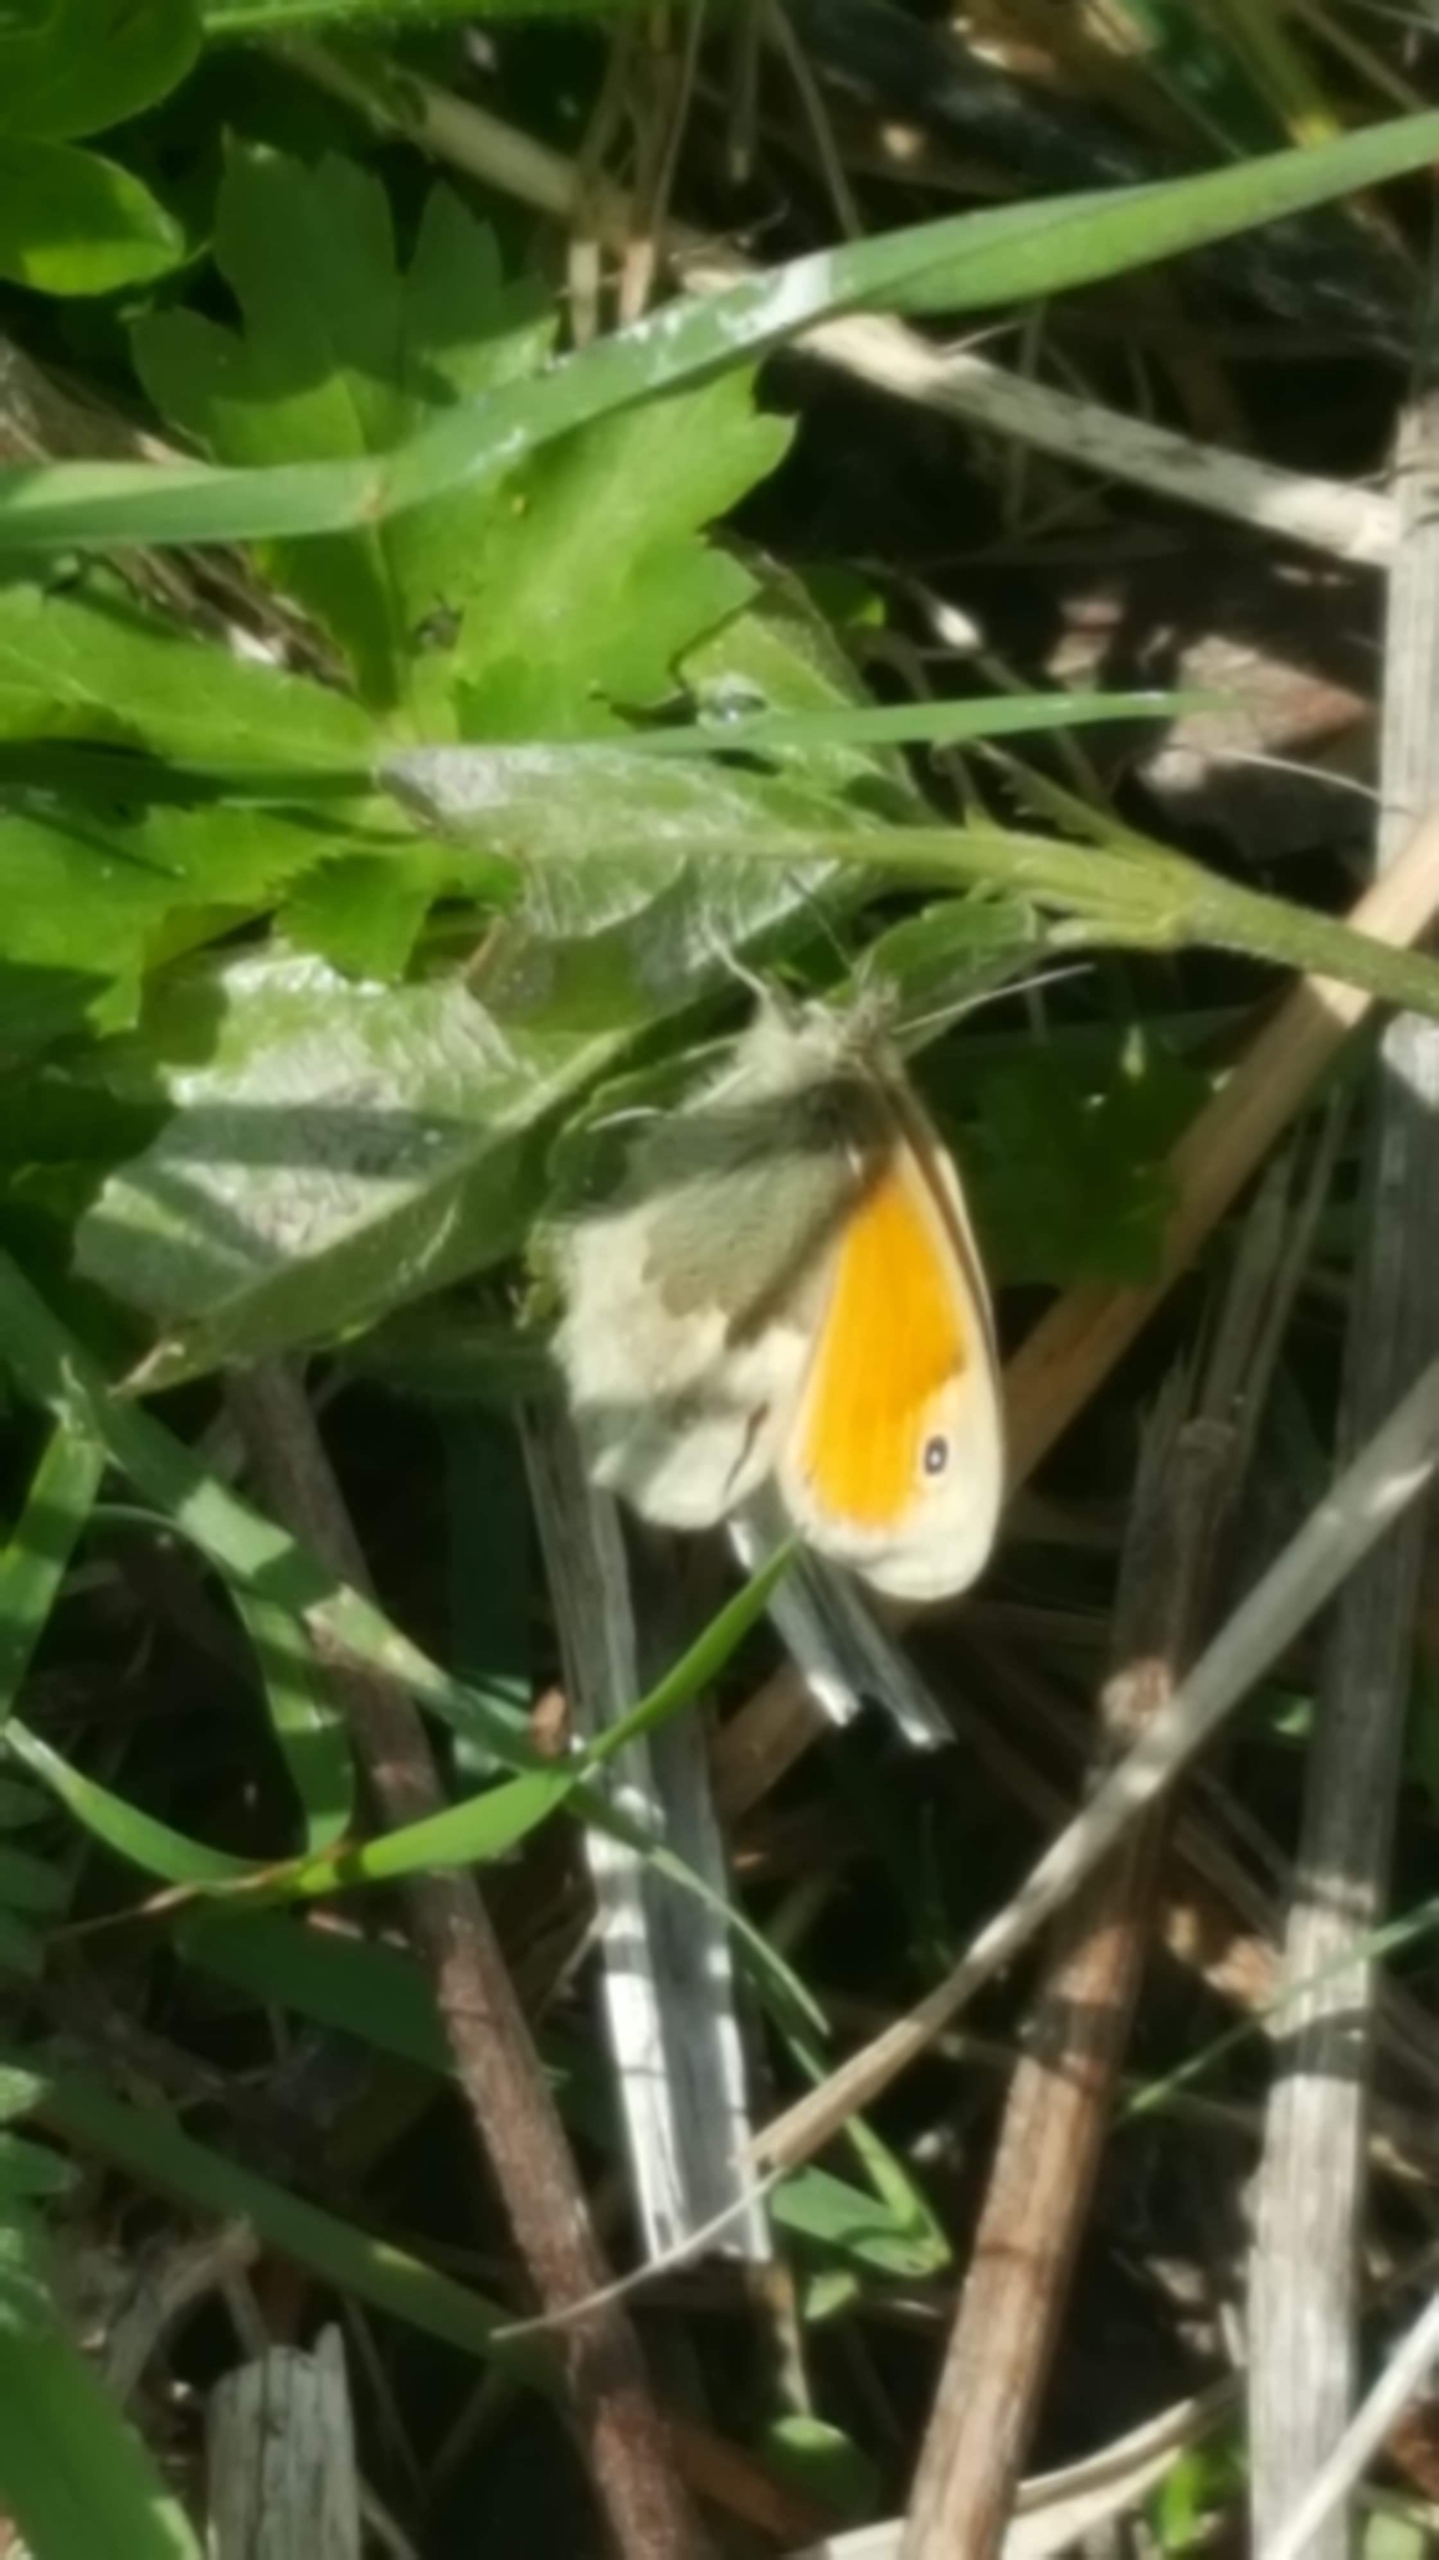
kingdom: Animalia
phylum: Arthropoda
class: Insecta
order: Lepidoptera
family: Nymphalidae
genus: Coenonympha
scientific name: Coenonympha pamphilus
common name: Okkergul randøje
